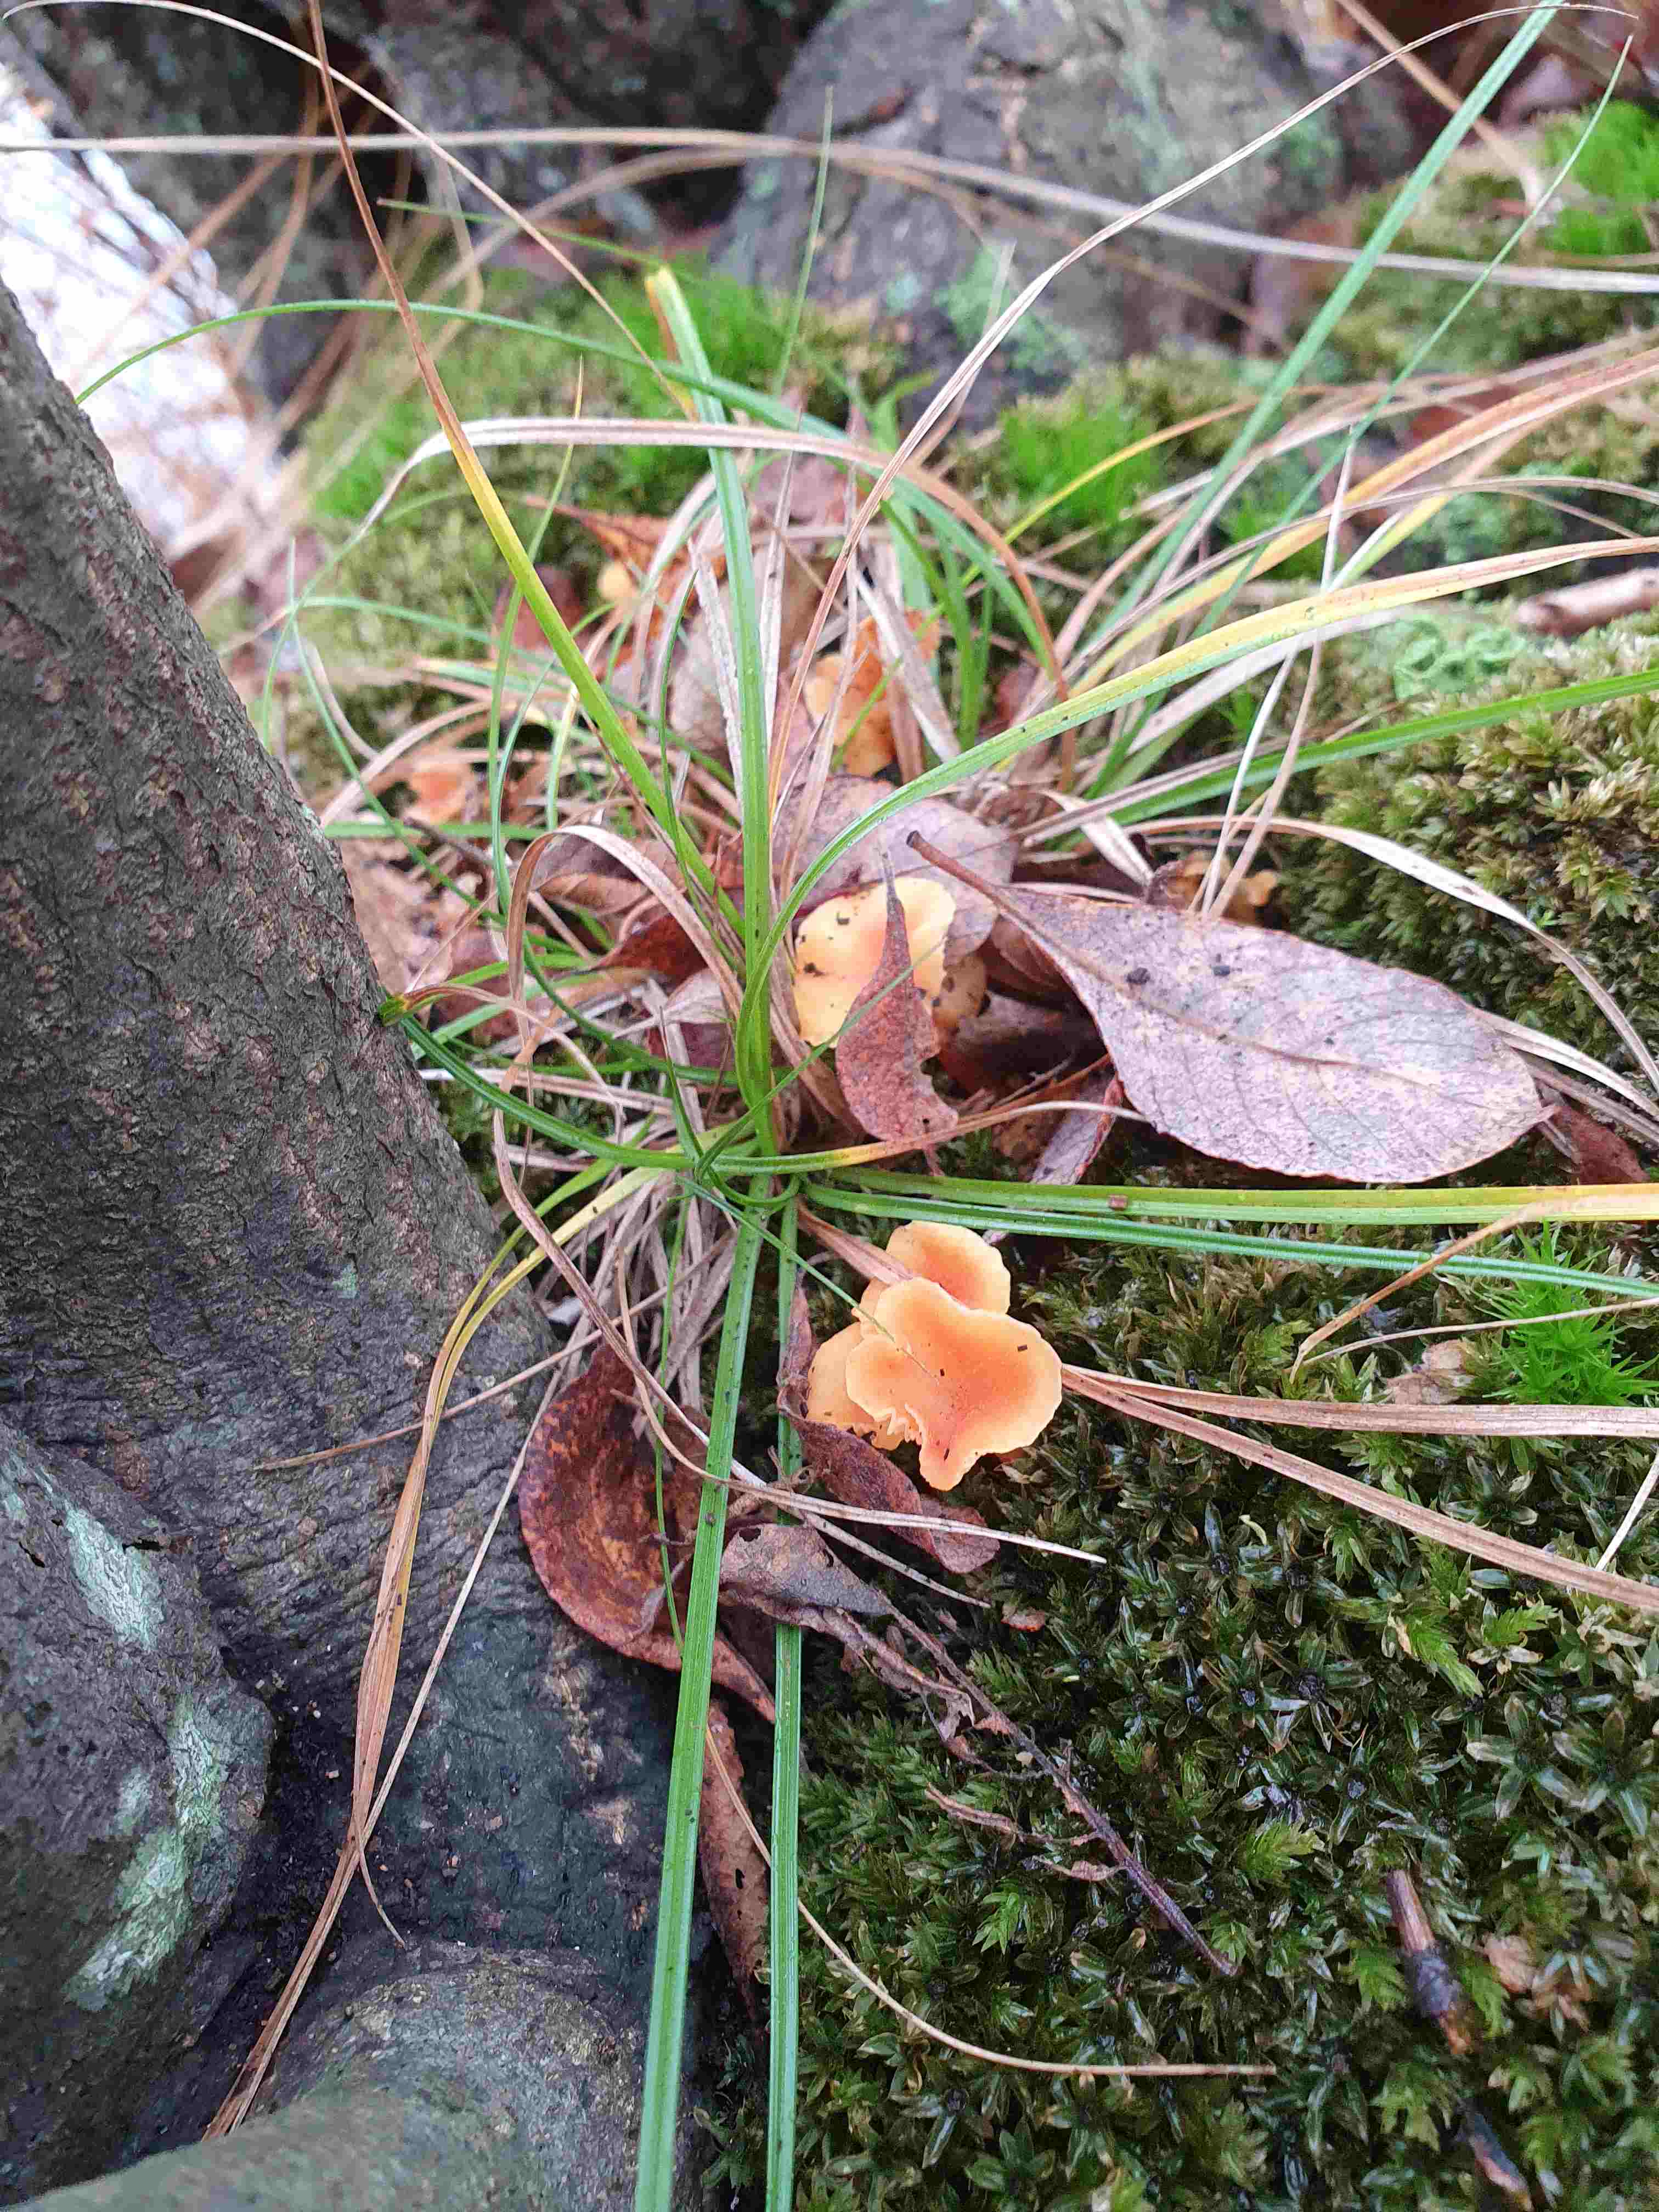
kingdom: Fungi
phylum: Basidiomycota
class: Agaricomycetes
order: Agaricales
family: Hygrophoraceae
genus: Hygrocybe
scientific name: Hygrocybe cantharellus
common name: kantarel-vokshat
